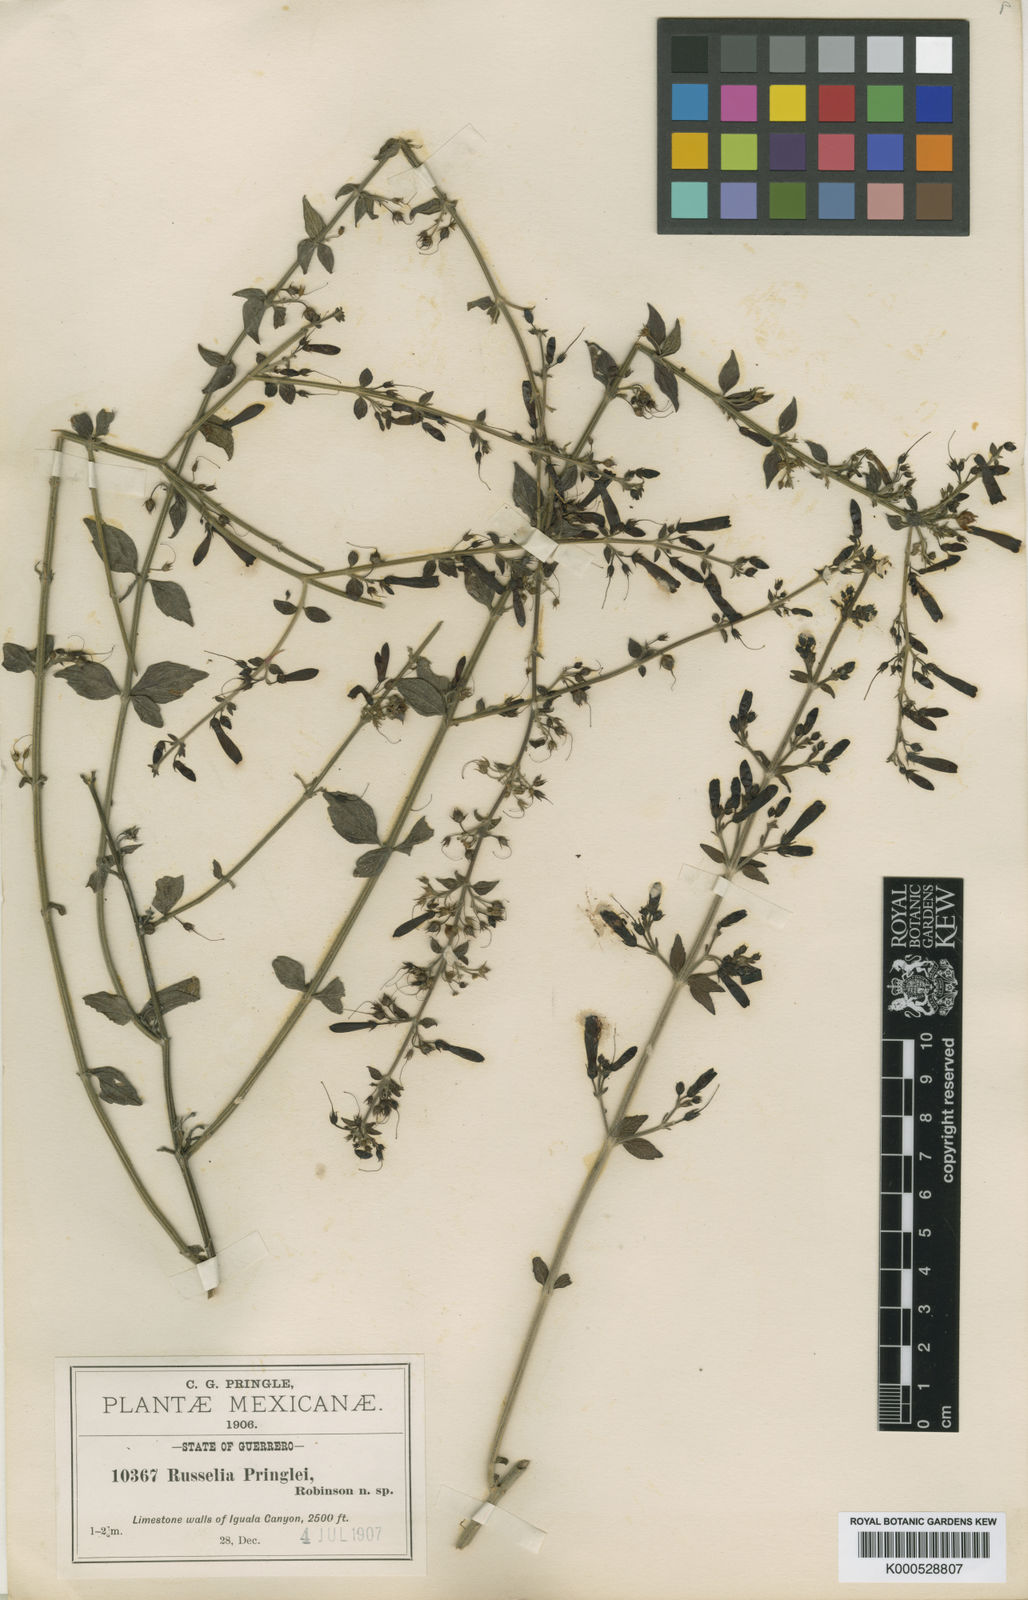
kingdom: Plantae
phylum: Tracheophyta
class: Magnoliopsida
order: Lamiales
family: Plantaginaceae
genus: Russelia
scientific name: Russelia pringlei
